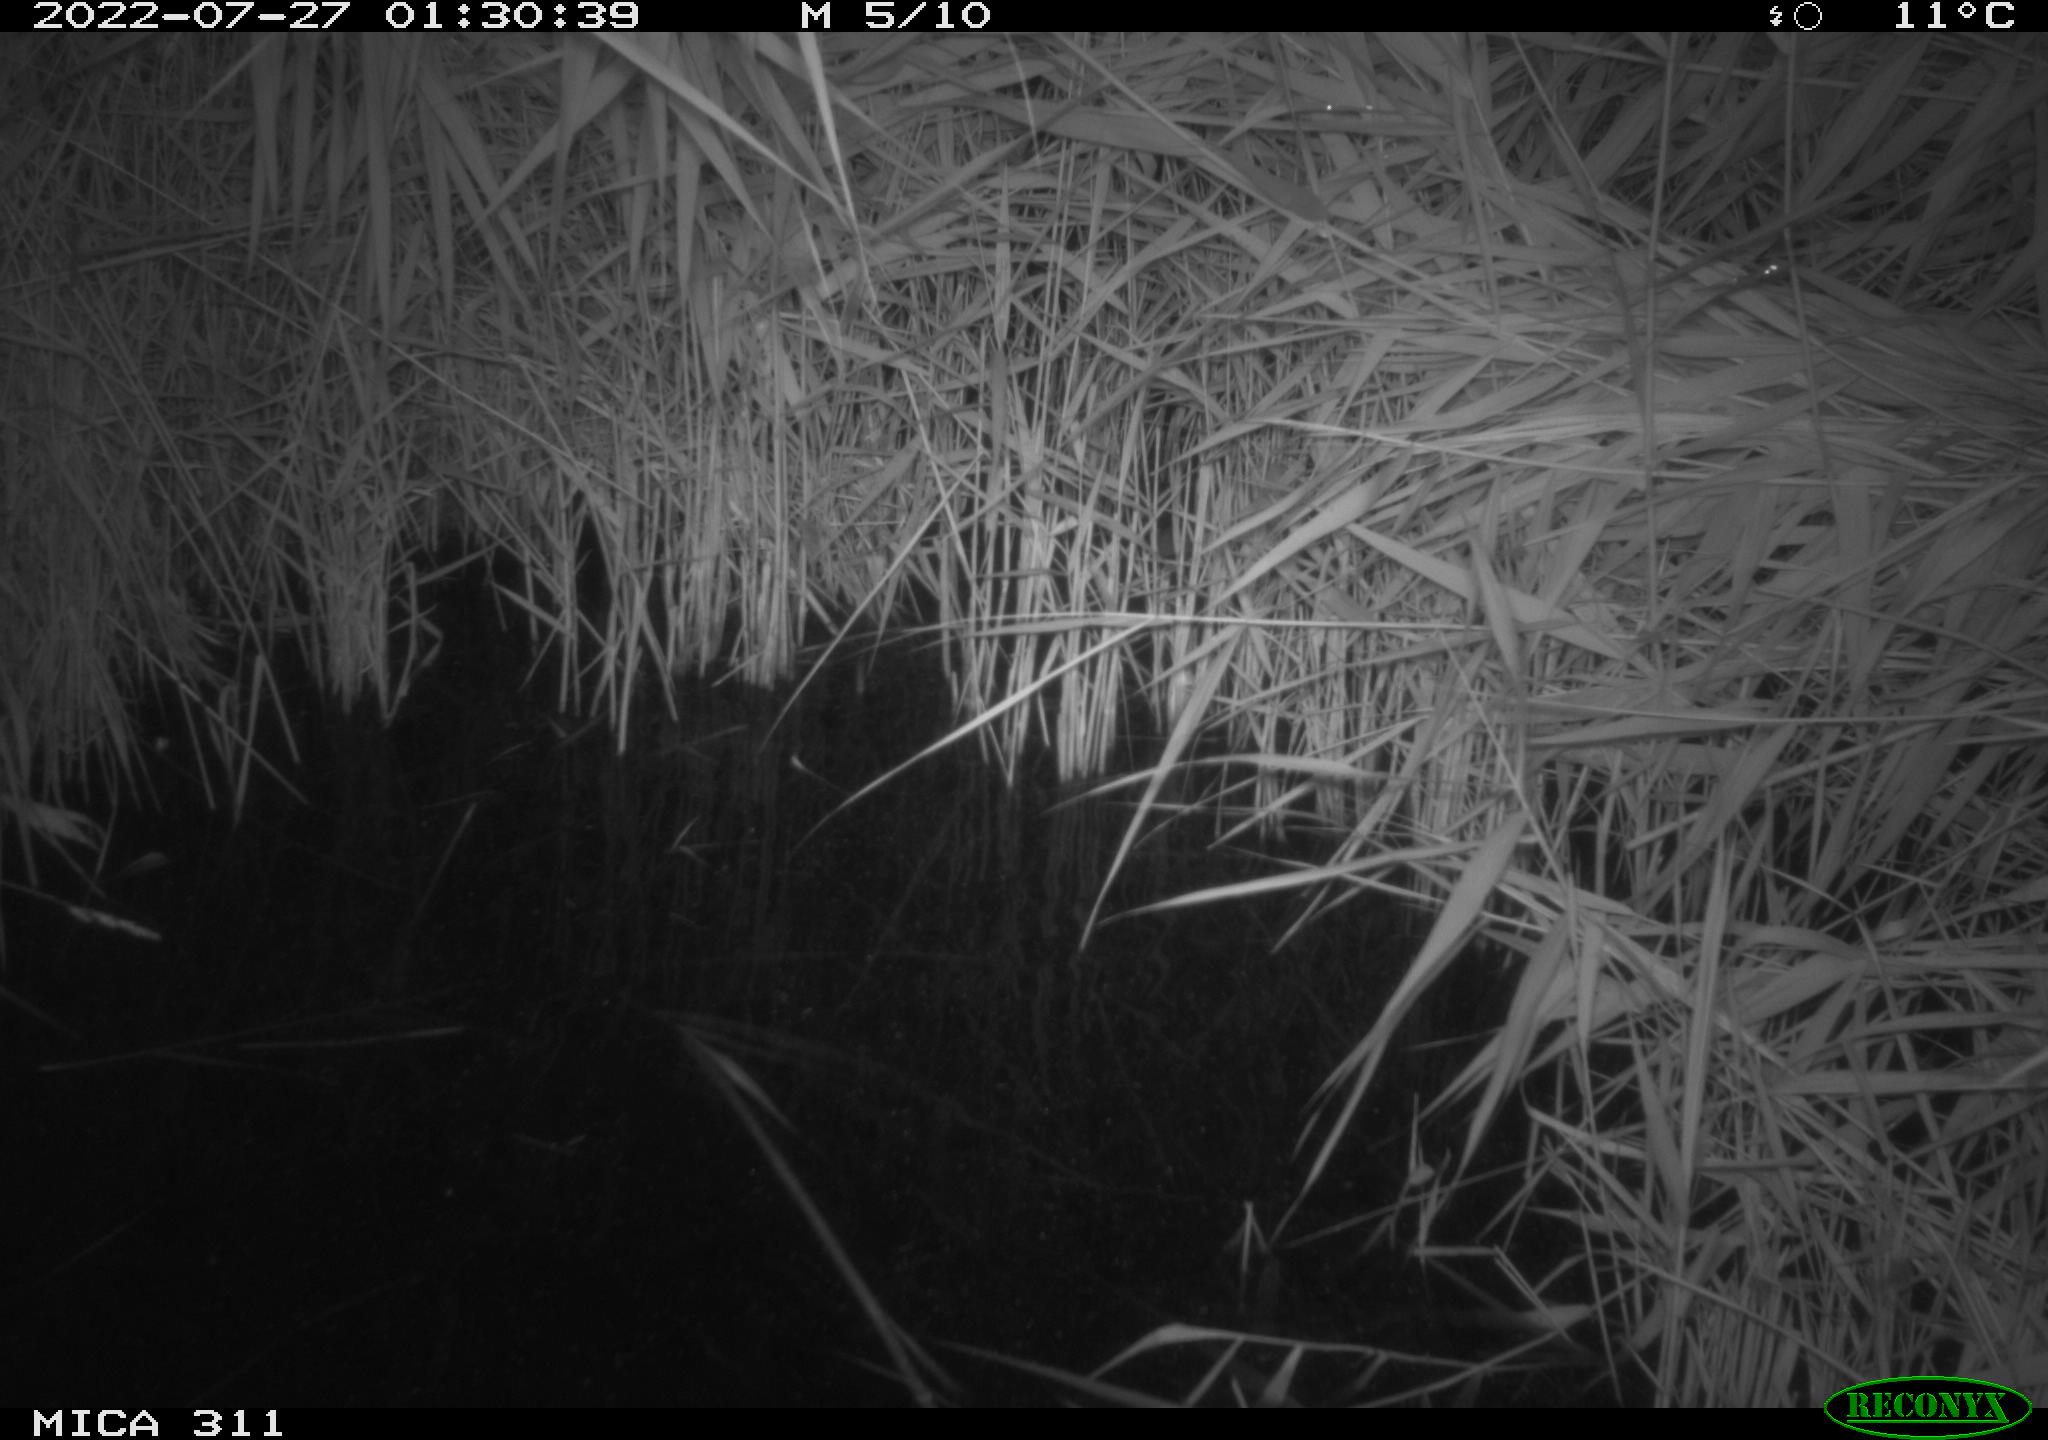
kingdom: Animalia
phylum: Chordata
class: Mammalia
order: Rodentia
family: Muridae
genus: Rattus
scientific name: Rattus norvegicus
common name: Brown rat
